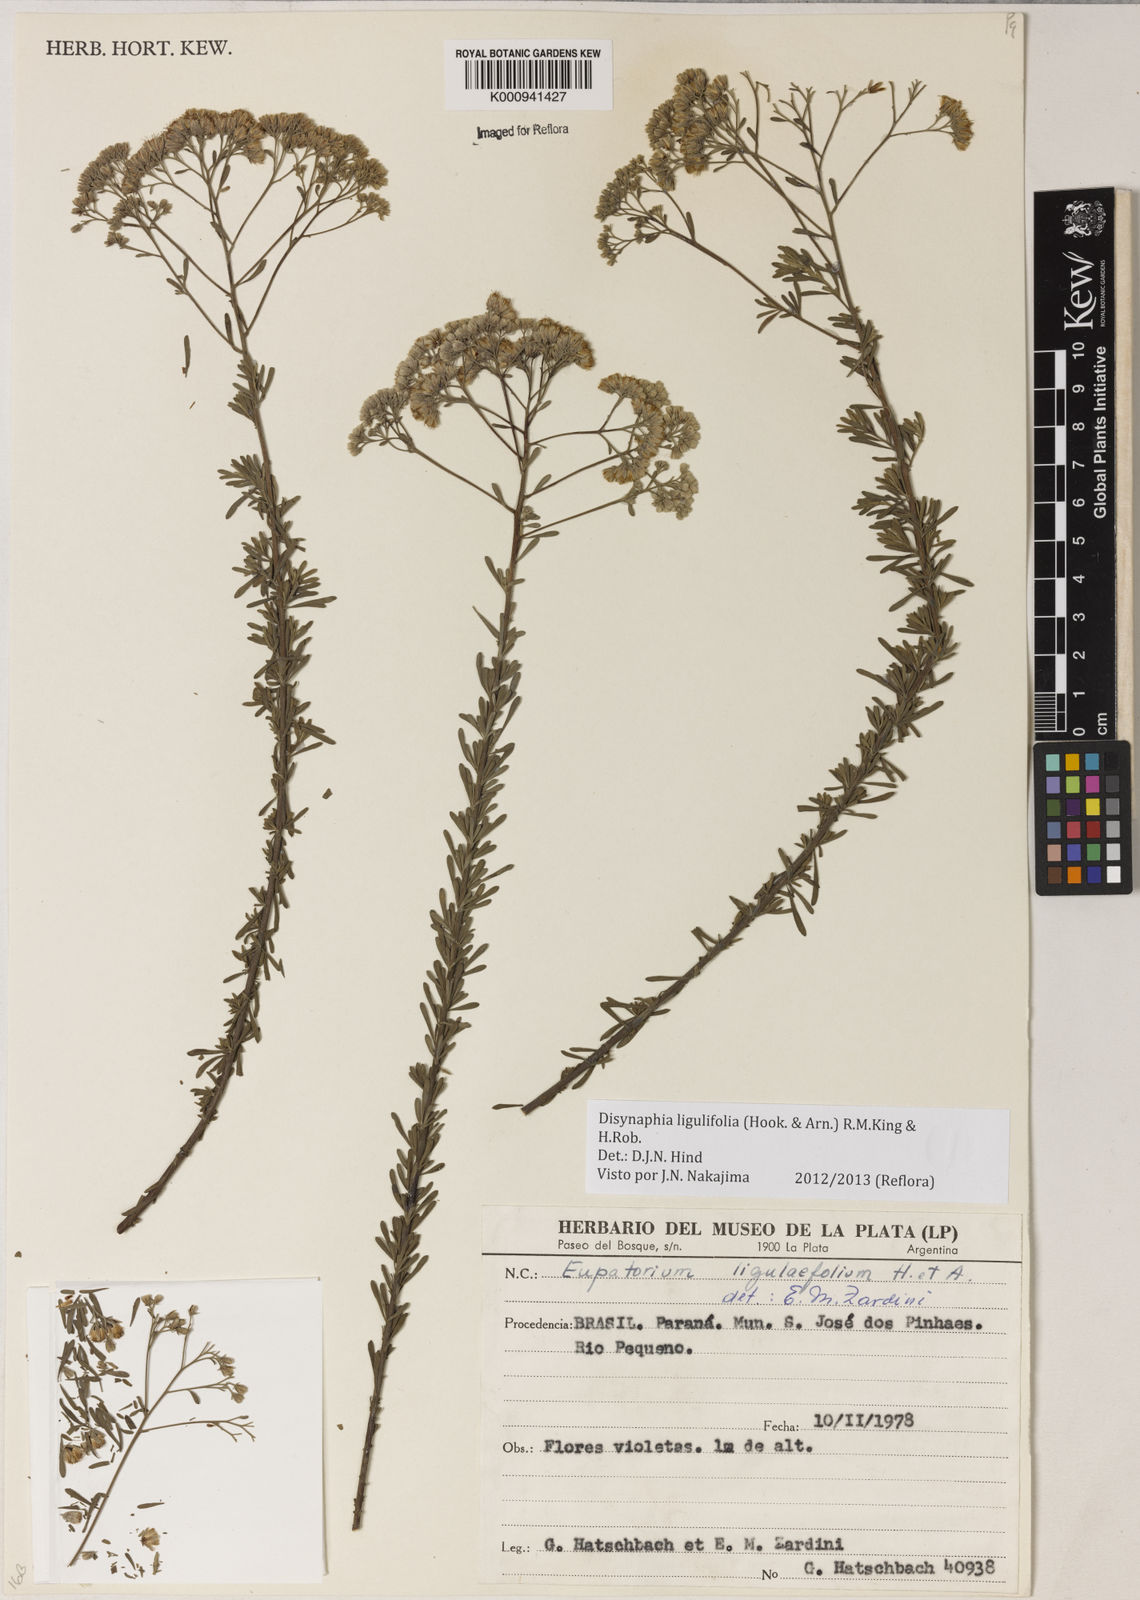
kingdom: Plantae
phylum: Tracheophyta
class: Magnoliopsida
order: Asterales
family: Asteraceae
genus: Disynaphia
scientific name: Disynaphia ligulifolia
